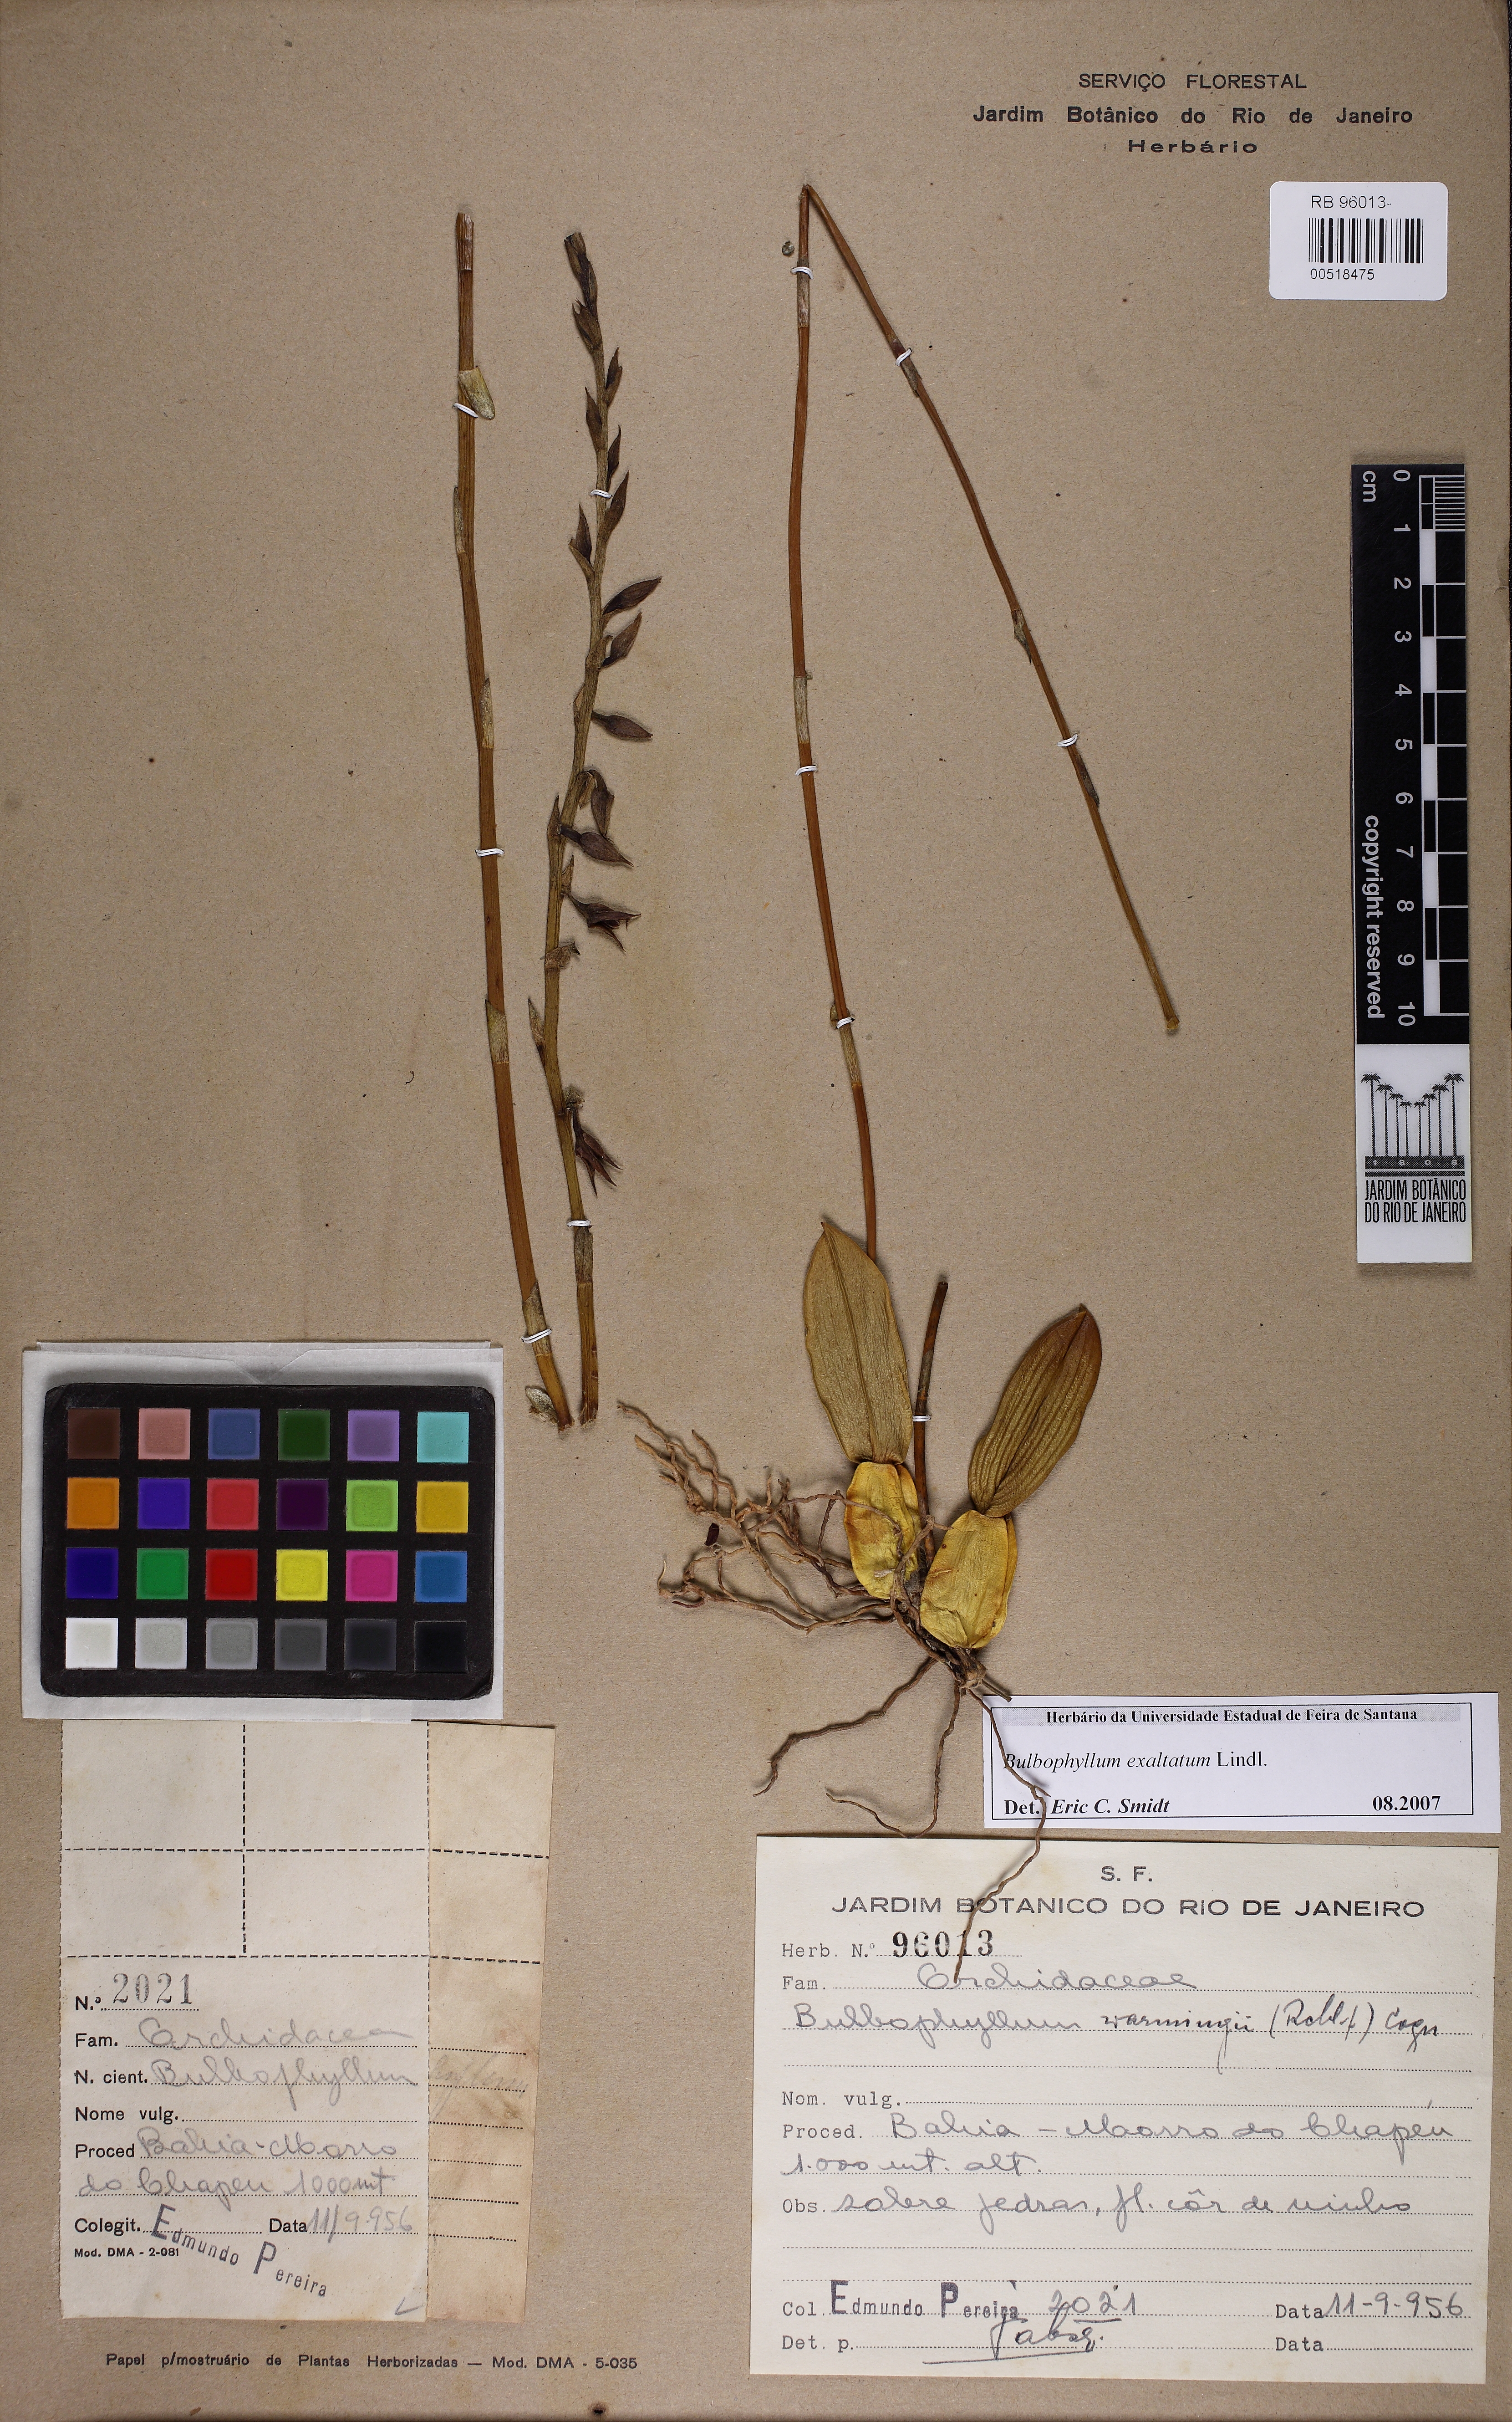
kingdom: Plantae
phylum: Tracheophyta
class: Liliopsida
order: Asparagales
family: Orchidaceae
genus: Bulbophyllum
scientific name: Bulbophyllum exaltatum
